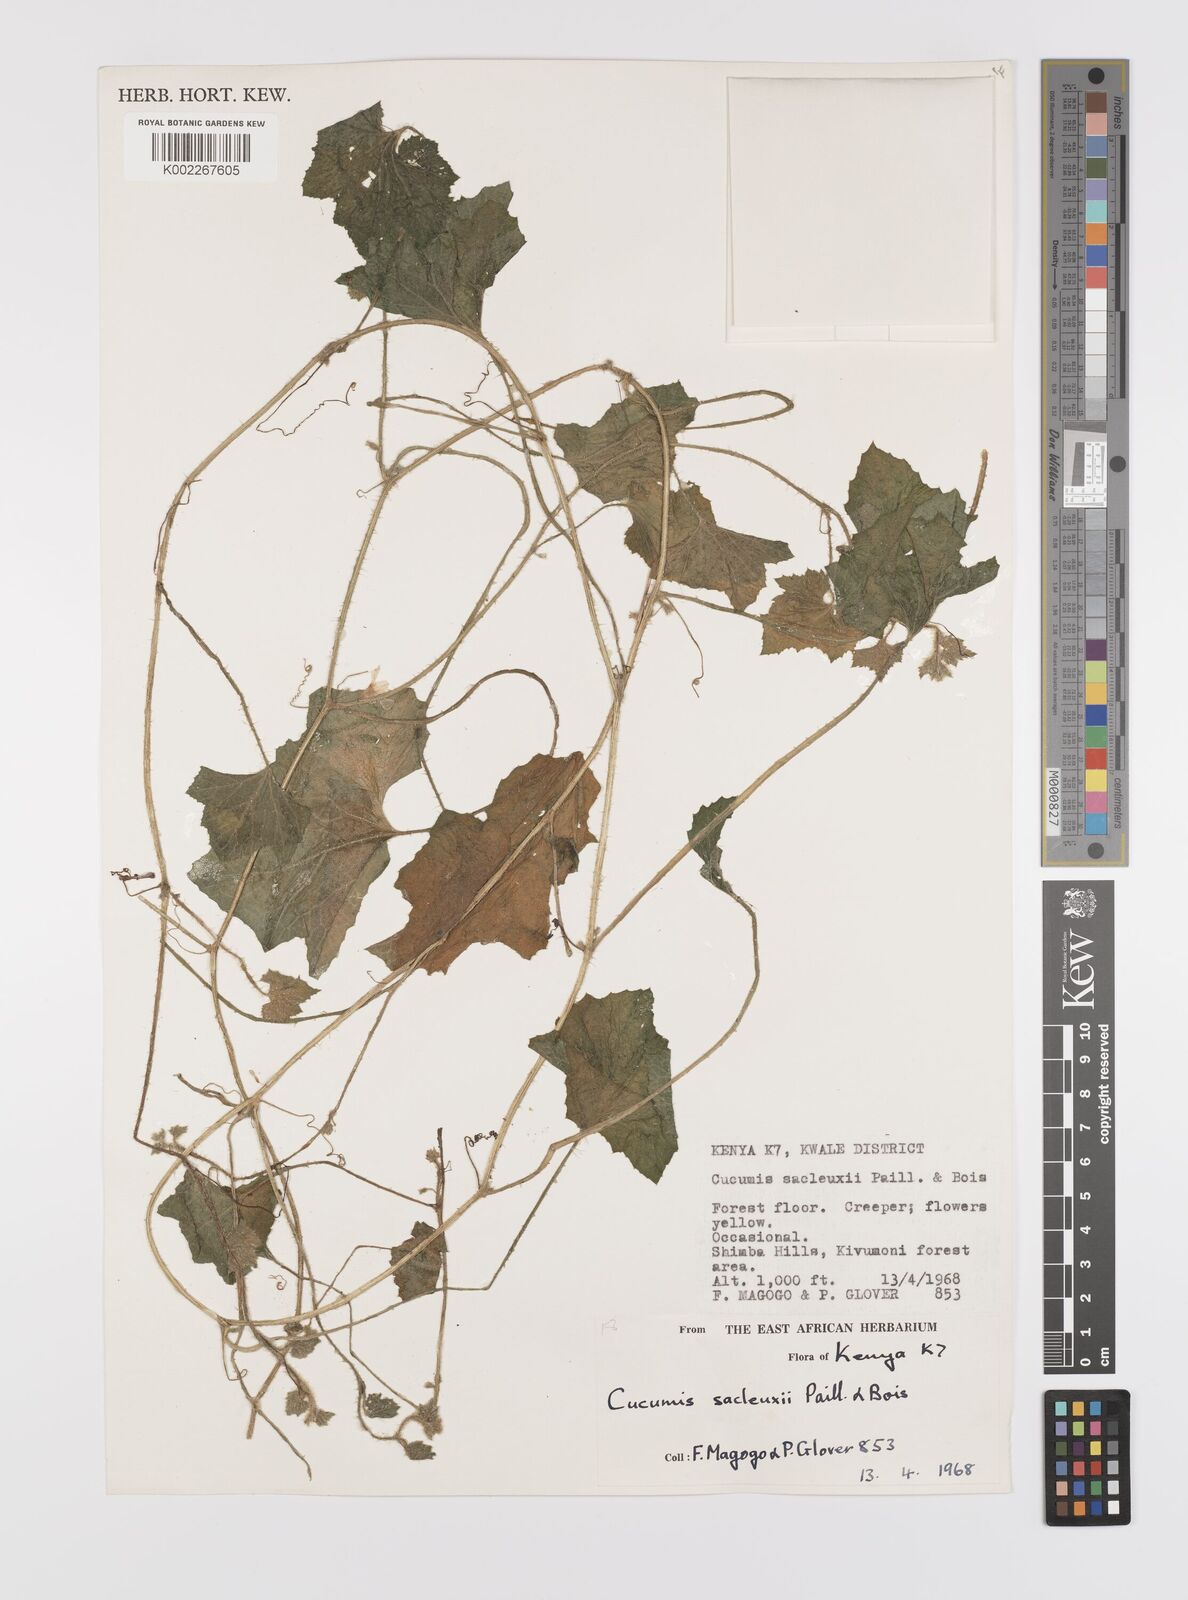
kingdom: Plantae
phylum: Tracheophyta
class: Magnoliopsida
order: Cucurbitales
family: Cucurbitaceae
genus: Cucumis
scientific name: Cucumis sacleuxii
